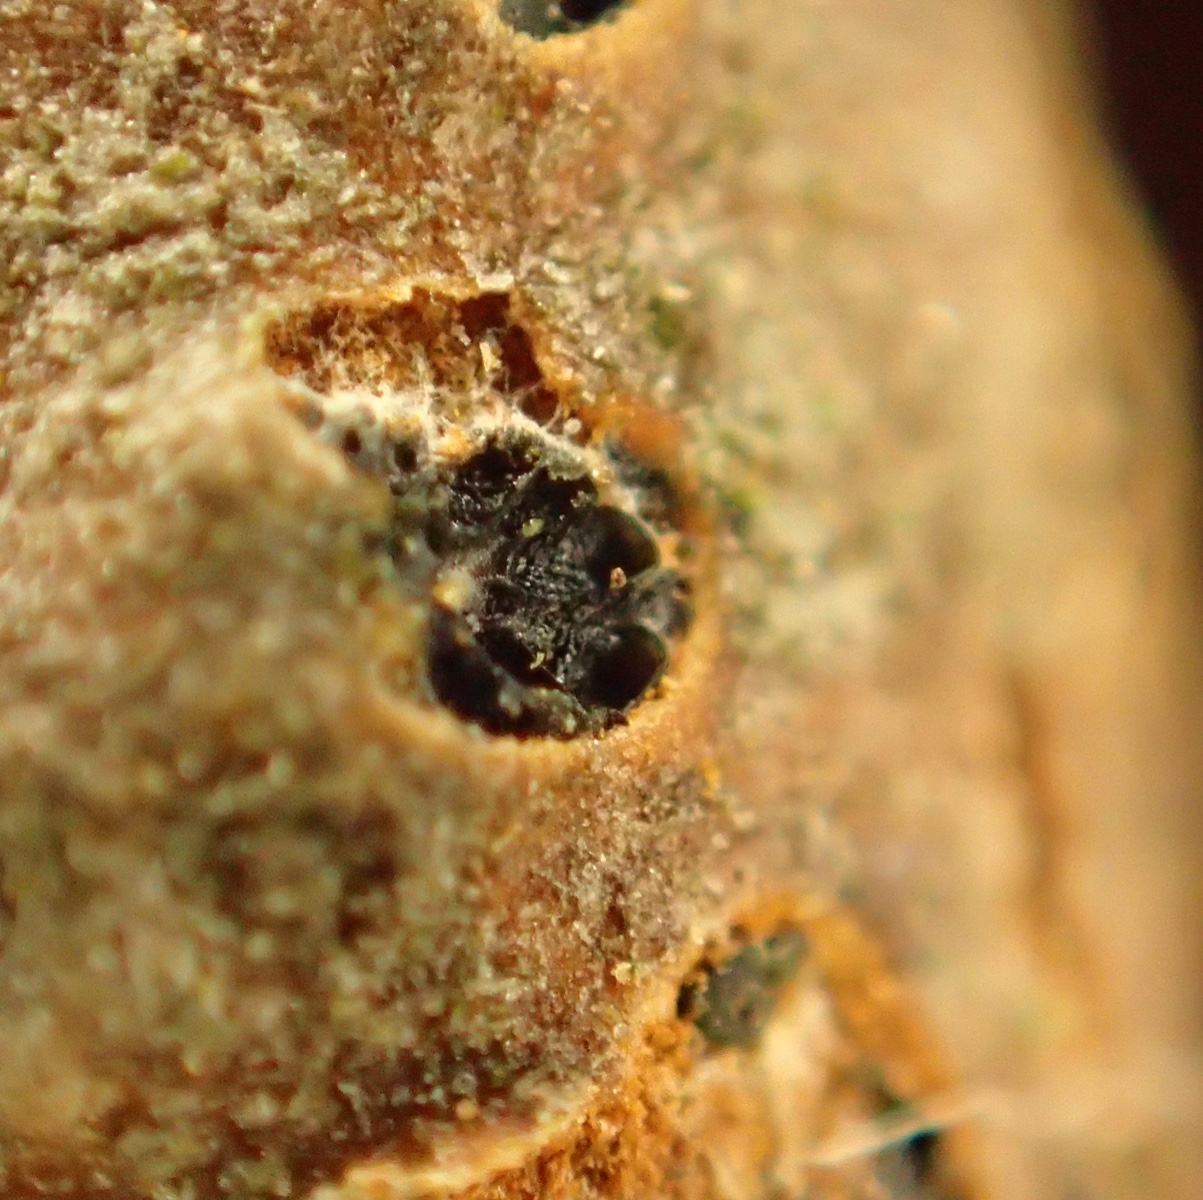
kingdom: Fungi
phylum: Ascomycota
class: Sordariomycetes
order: Diaporthales
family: Sydowiellaceae
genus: Hapalocystis
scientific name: Hapalocystis kickxii
